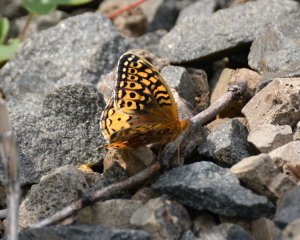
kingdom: Animalia
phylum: Arthropoda
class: Insecta
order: Lepidoptera
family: Nymphalidae
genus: Speyeria
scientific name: Speyeria cybele
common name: Great Spangled Fritillary
